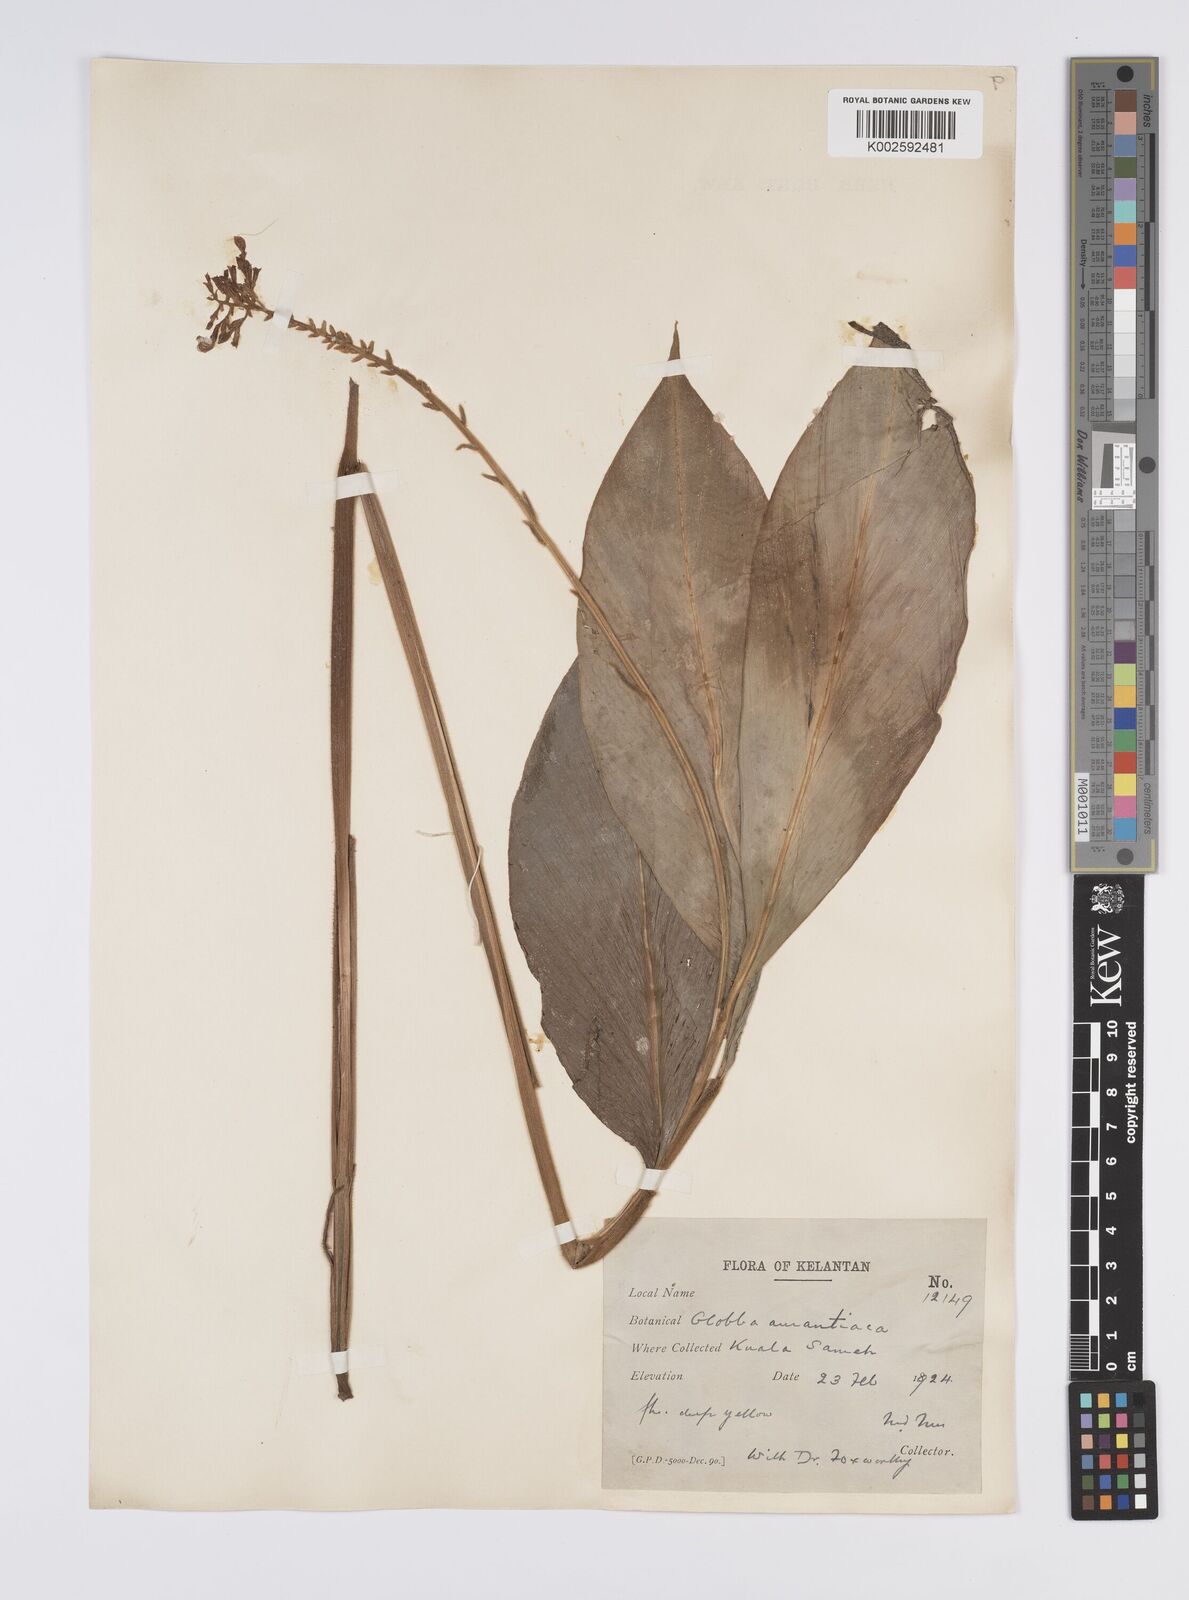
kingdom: Plantae
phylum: Tracheophyta
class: Liliopsida
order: Zingiberales
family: Zingiberaceae
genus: Globba
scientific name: Globba aurantiaca
